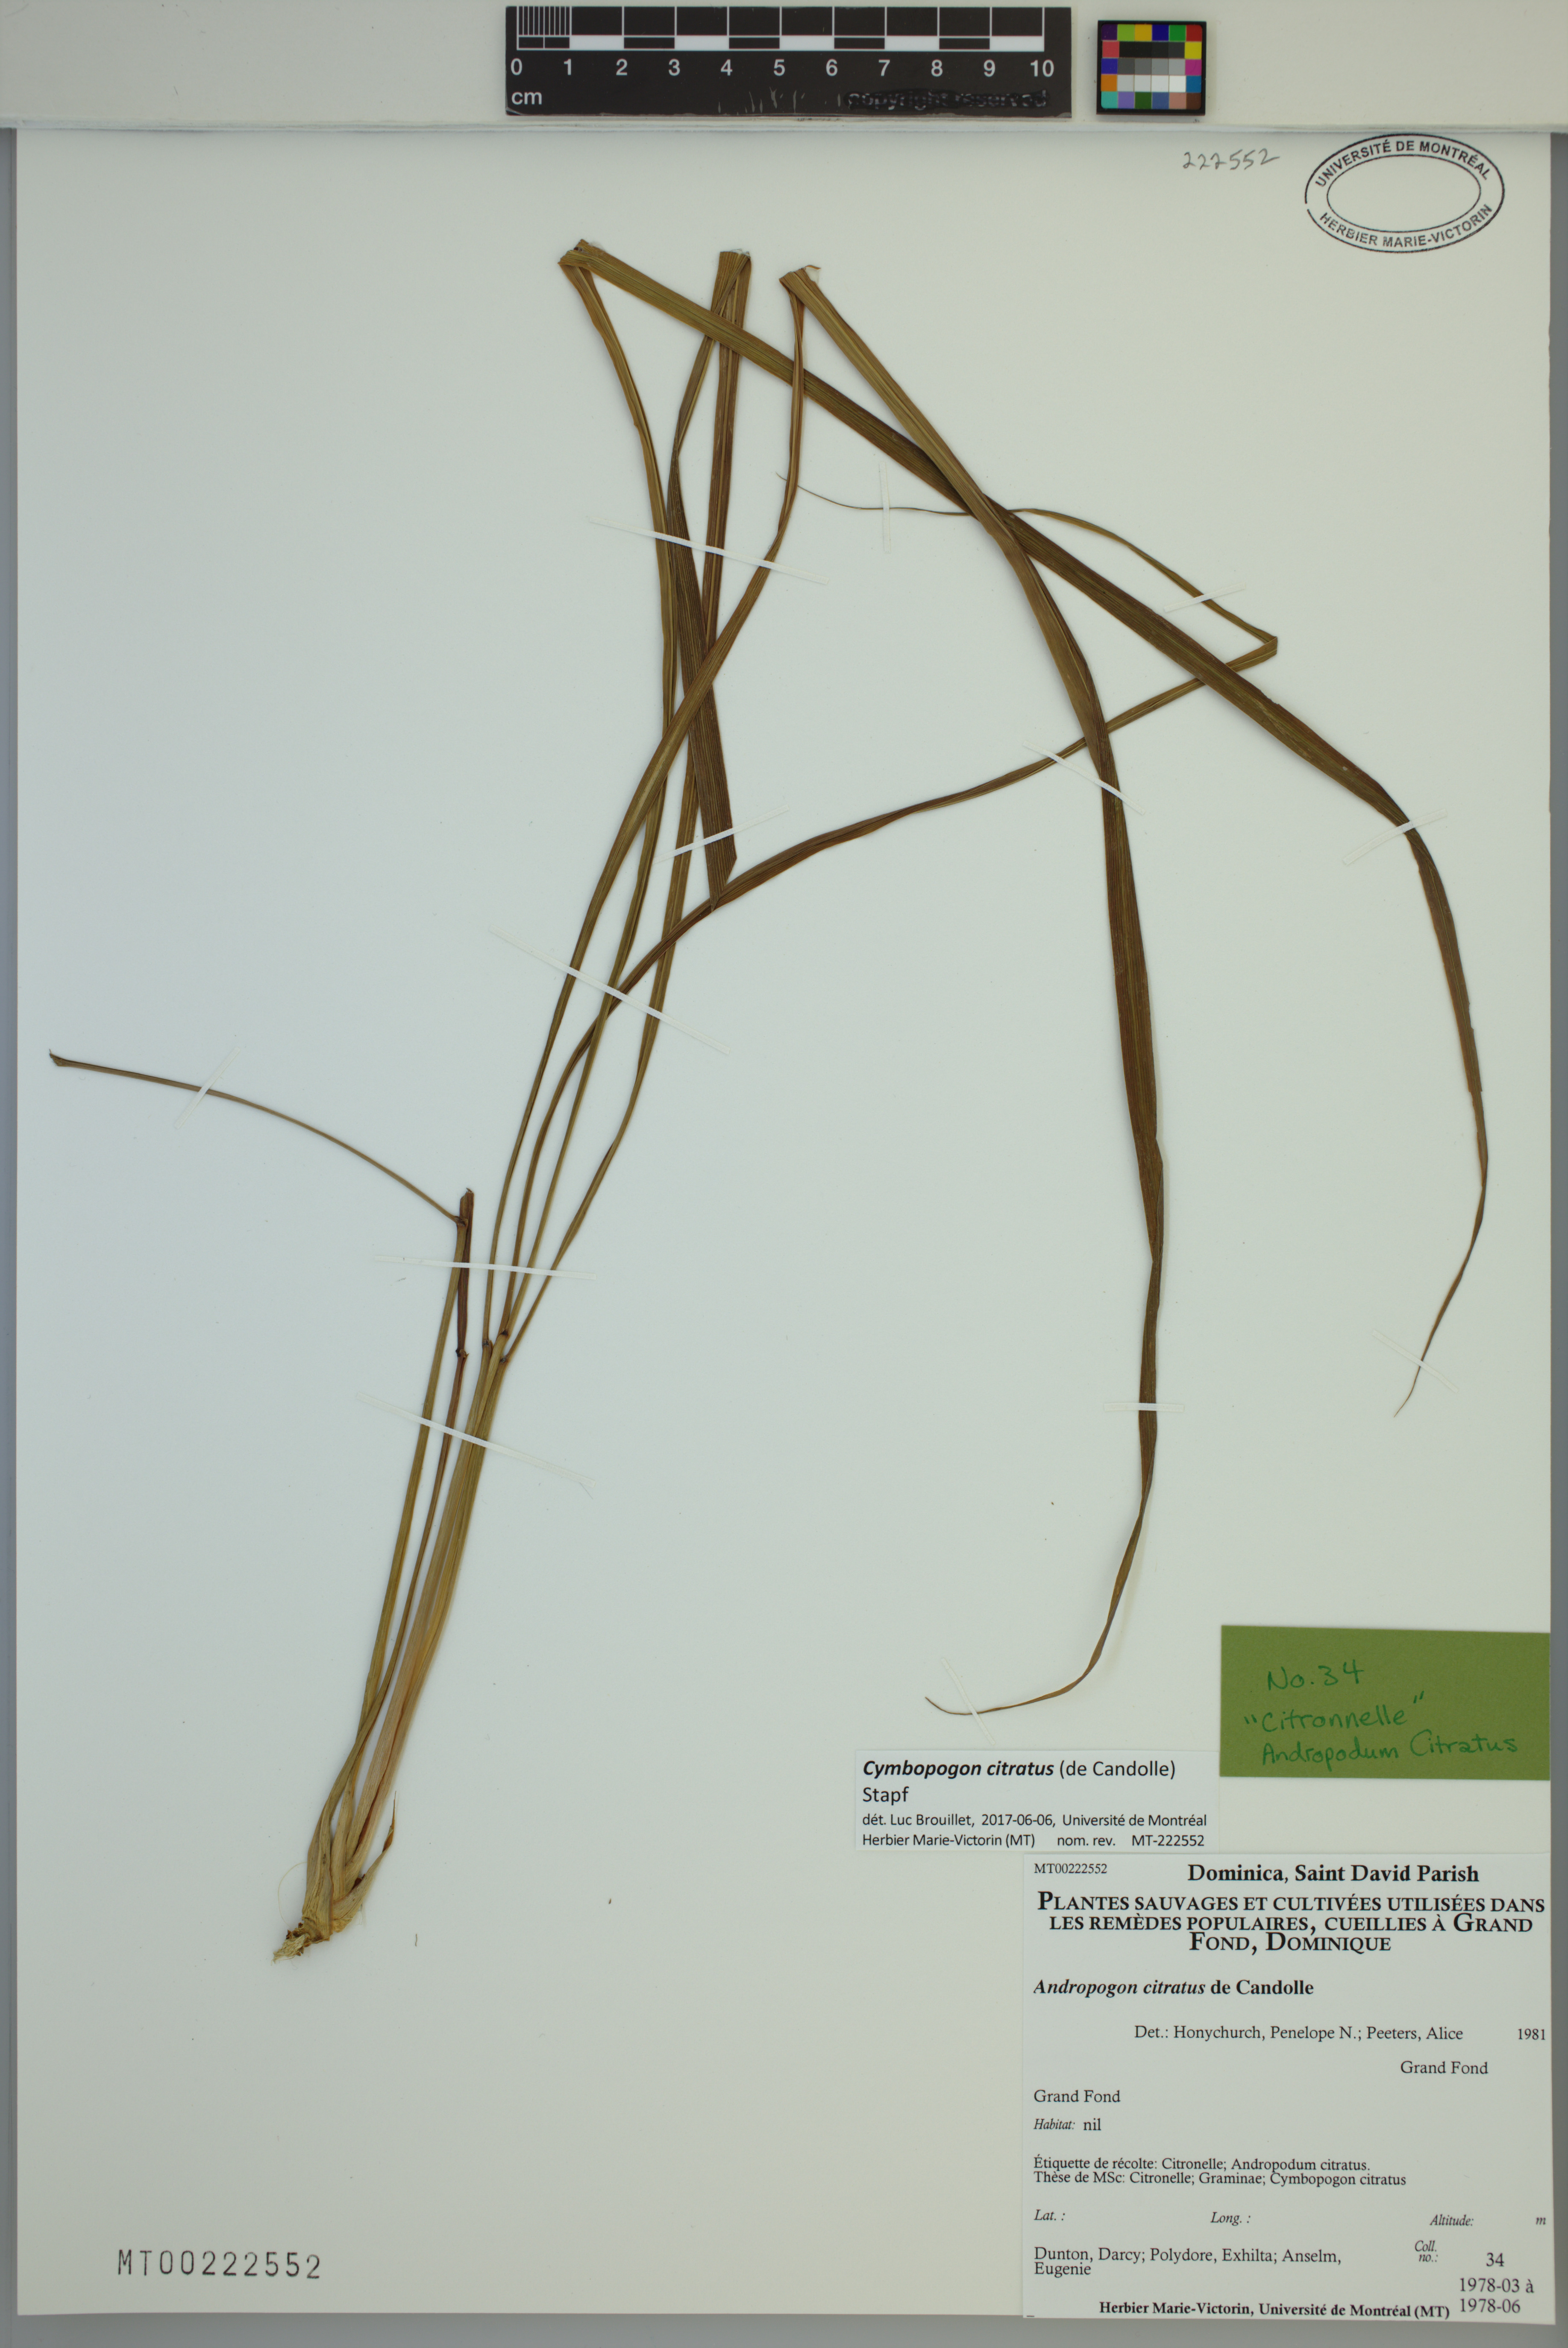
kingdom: Plantae
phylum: Tracheophyta
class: Liliopsida
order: Poales
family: Poaceae
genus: Cymbopogon
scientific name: Cymbopogon citratus
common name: Lemon grass
